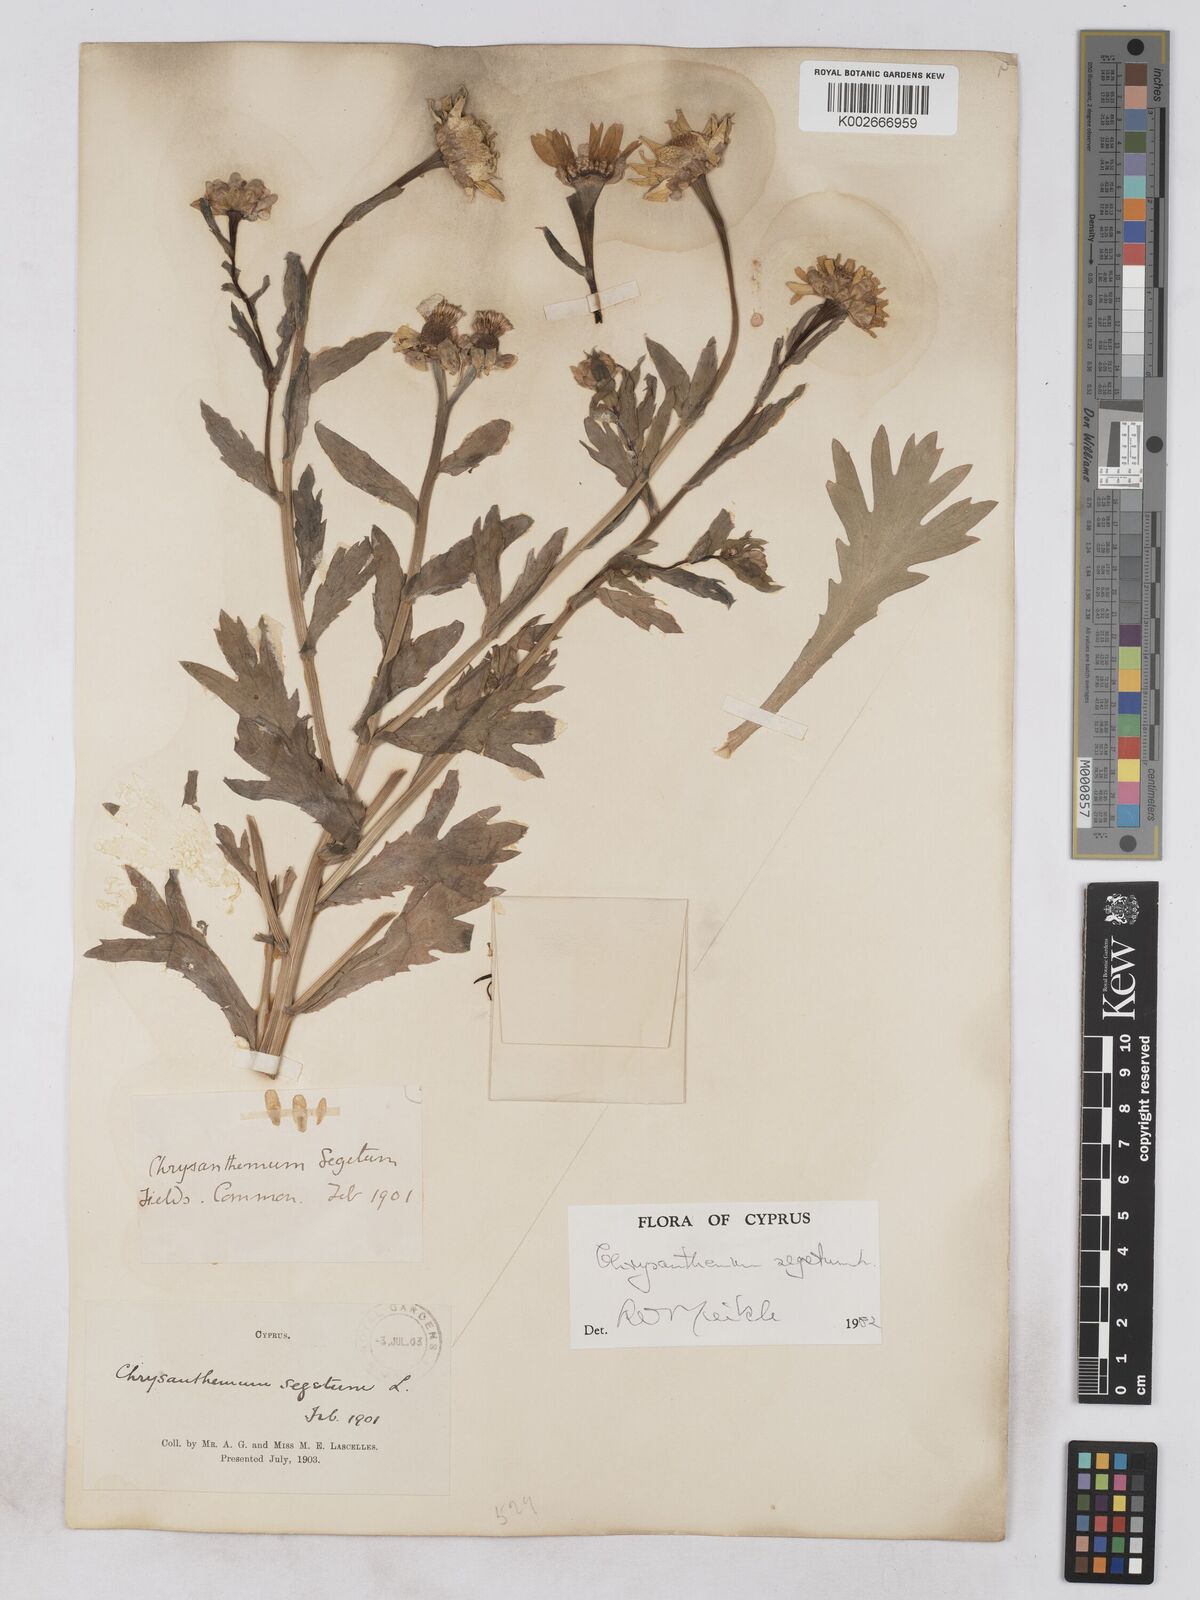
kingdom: Plantae
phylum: Tracheophyta
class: Magnoliopsida
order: Asterales
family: Asteraceae
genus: Glebionis
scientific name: Glebionis segetum
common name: Corndaisy
